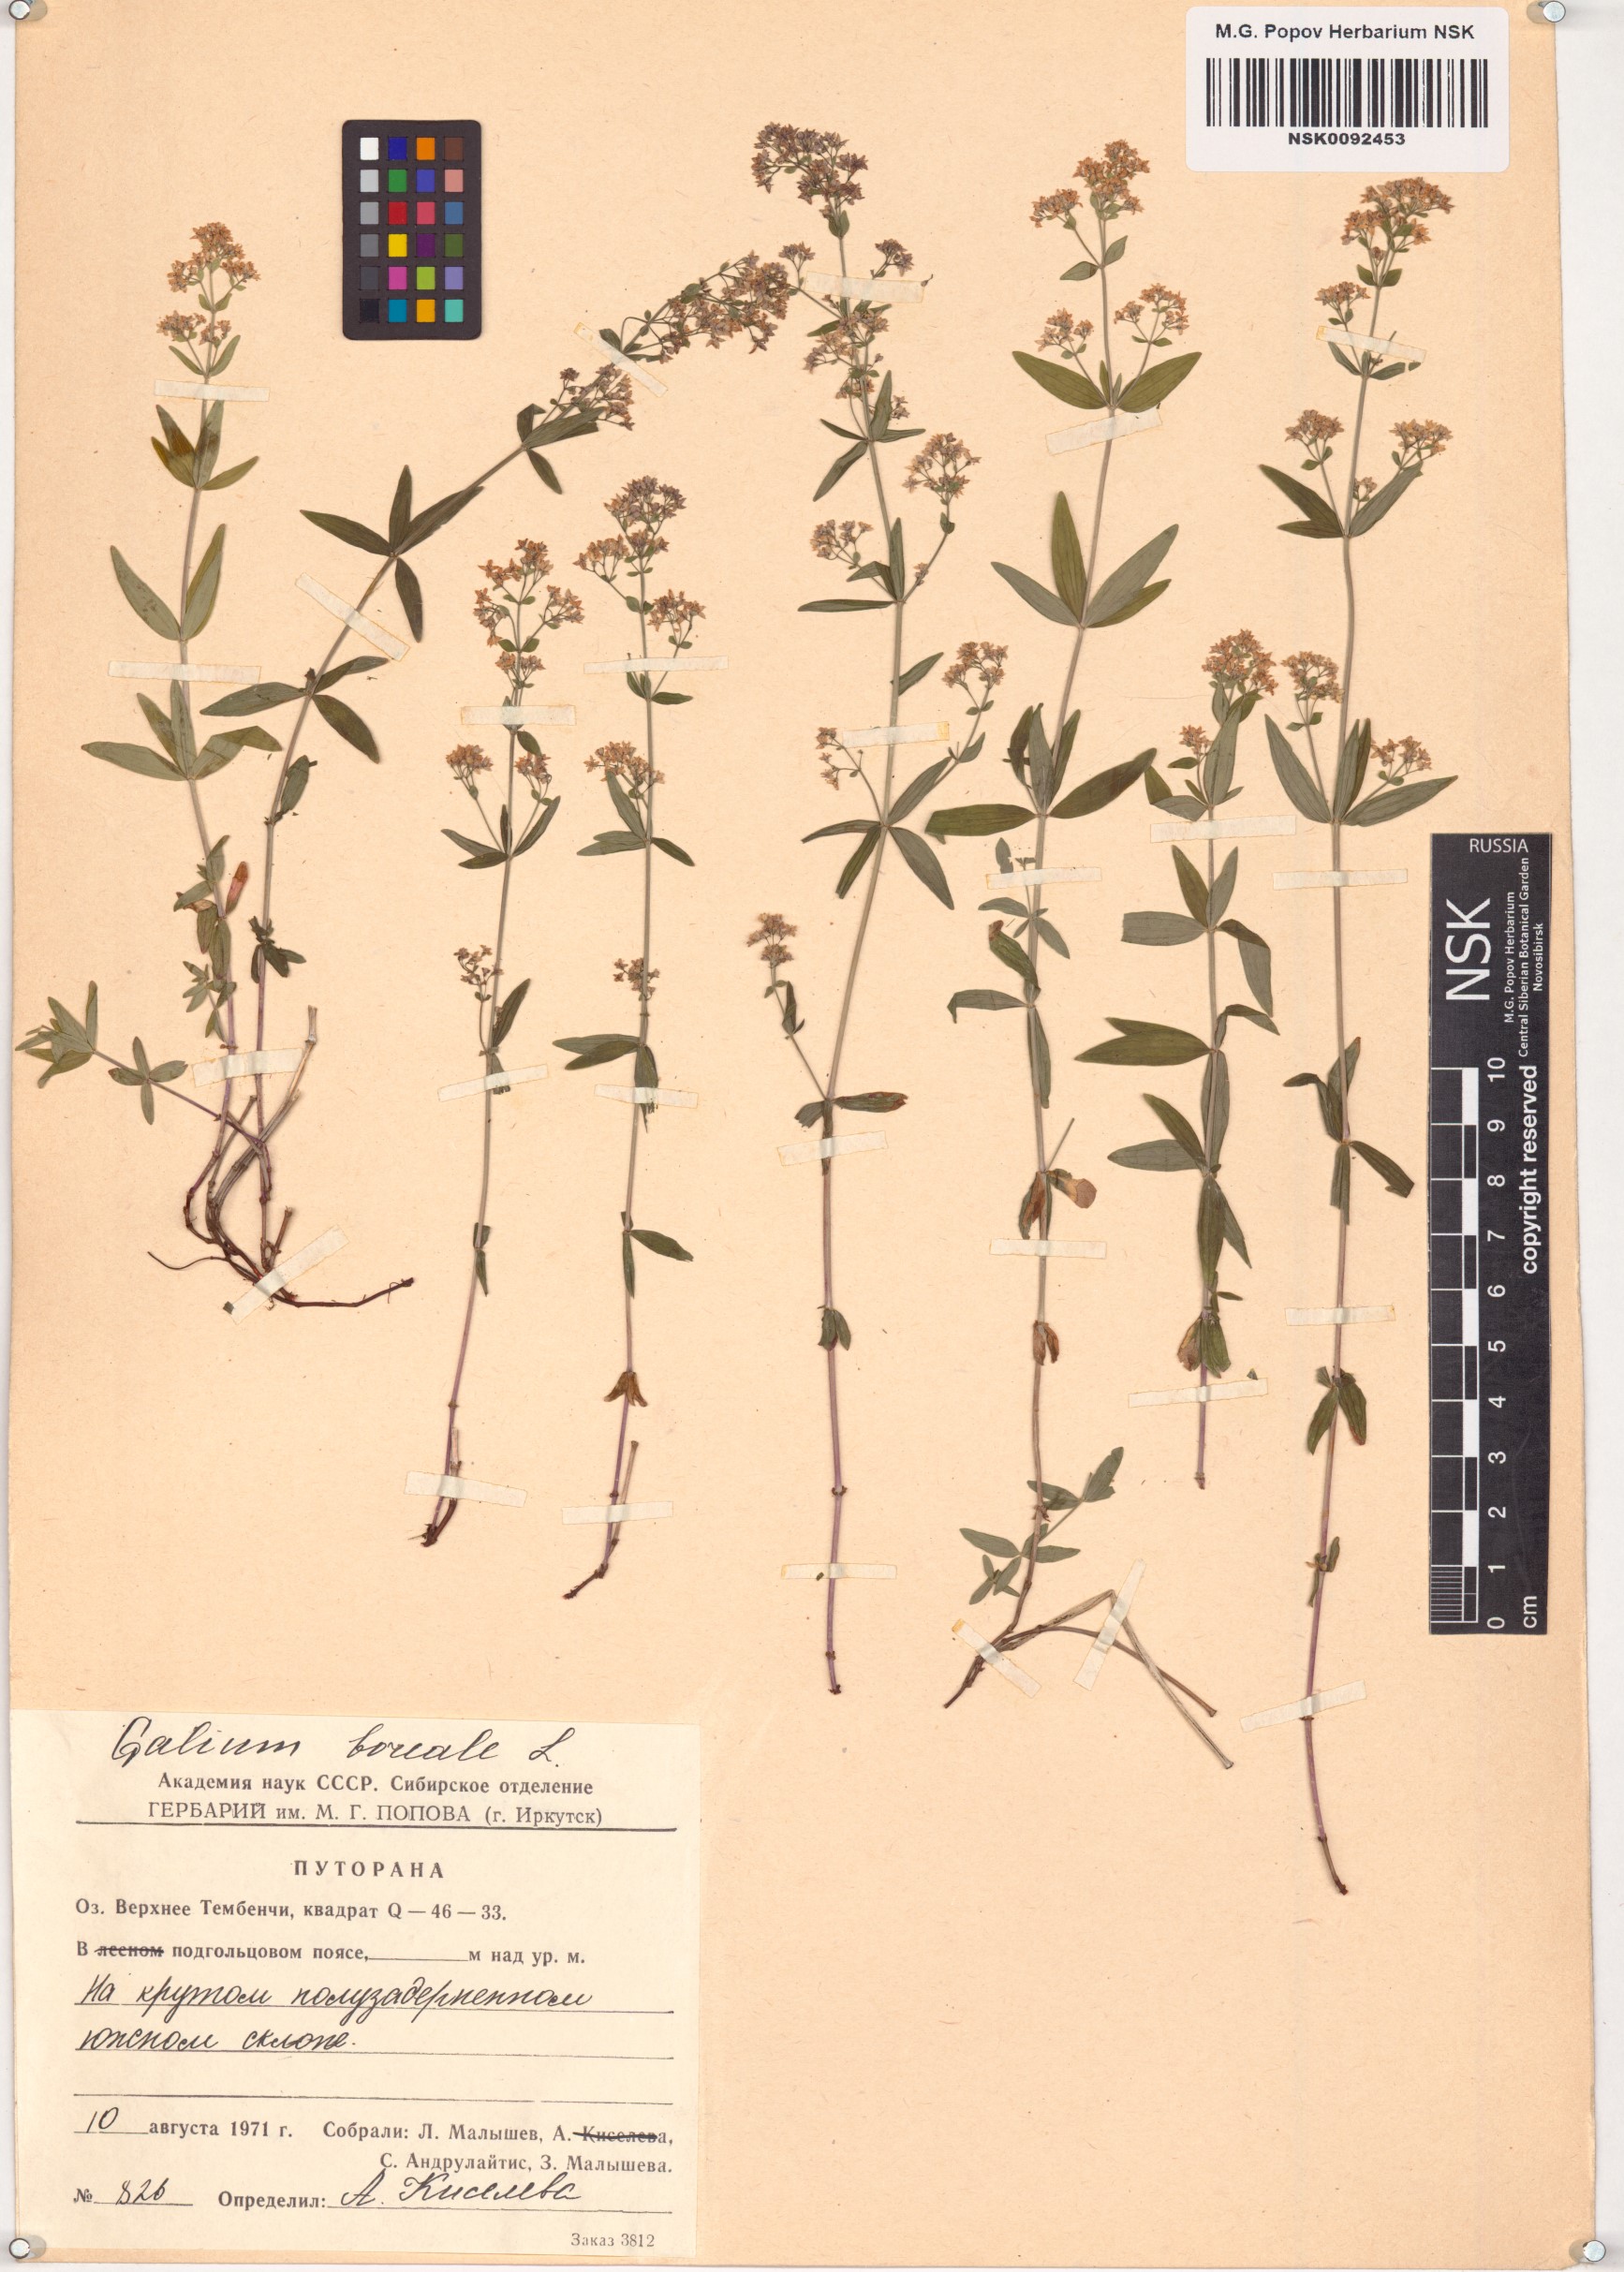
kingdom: Plantae
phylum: Tracheophyta
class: Magnoliopsida
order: Gentianales
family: Rubiaceae
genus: Galium
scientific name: Galium boreale
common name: Northern bedstraw
